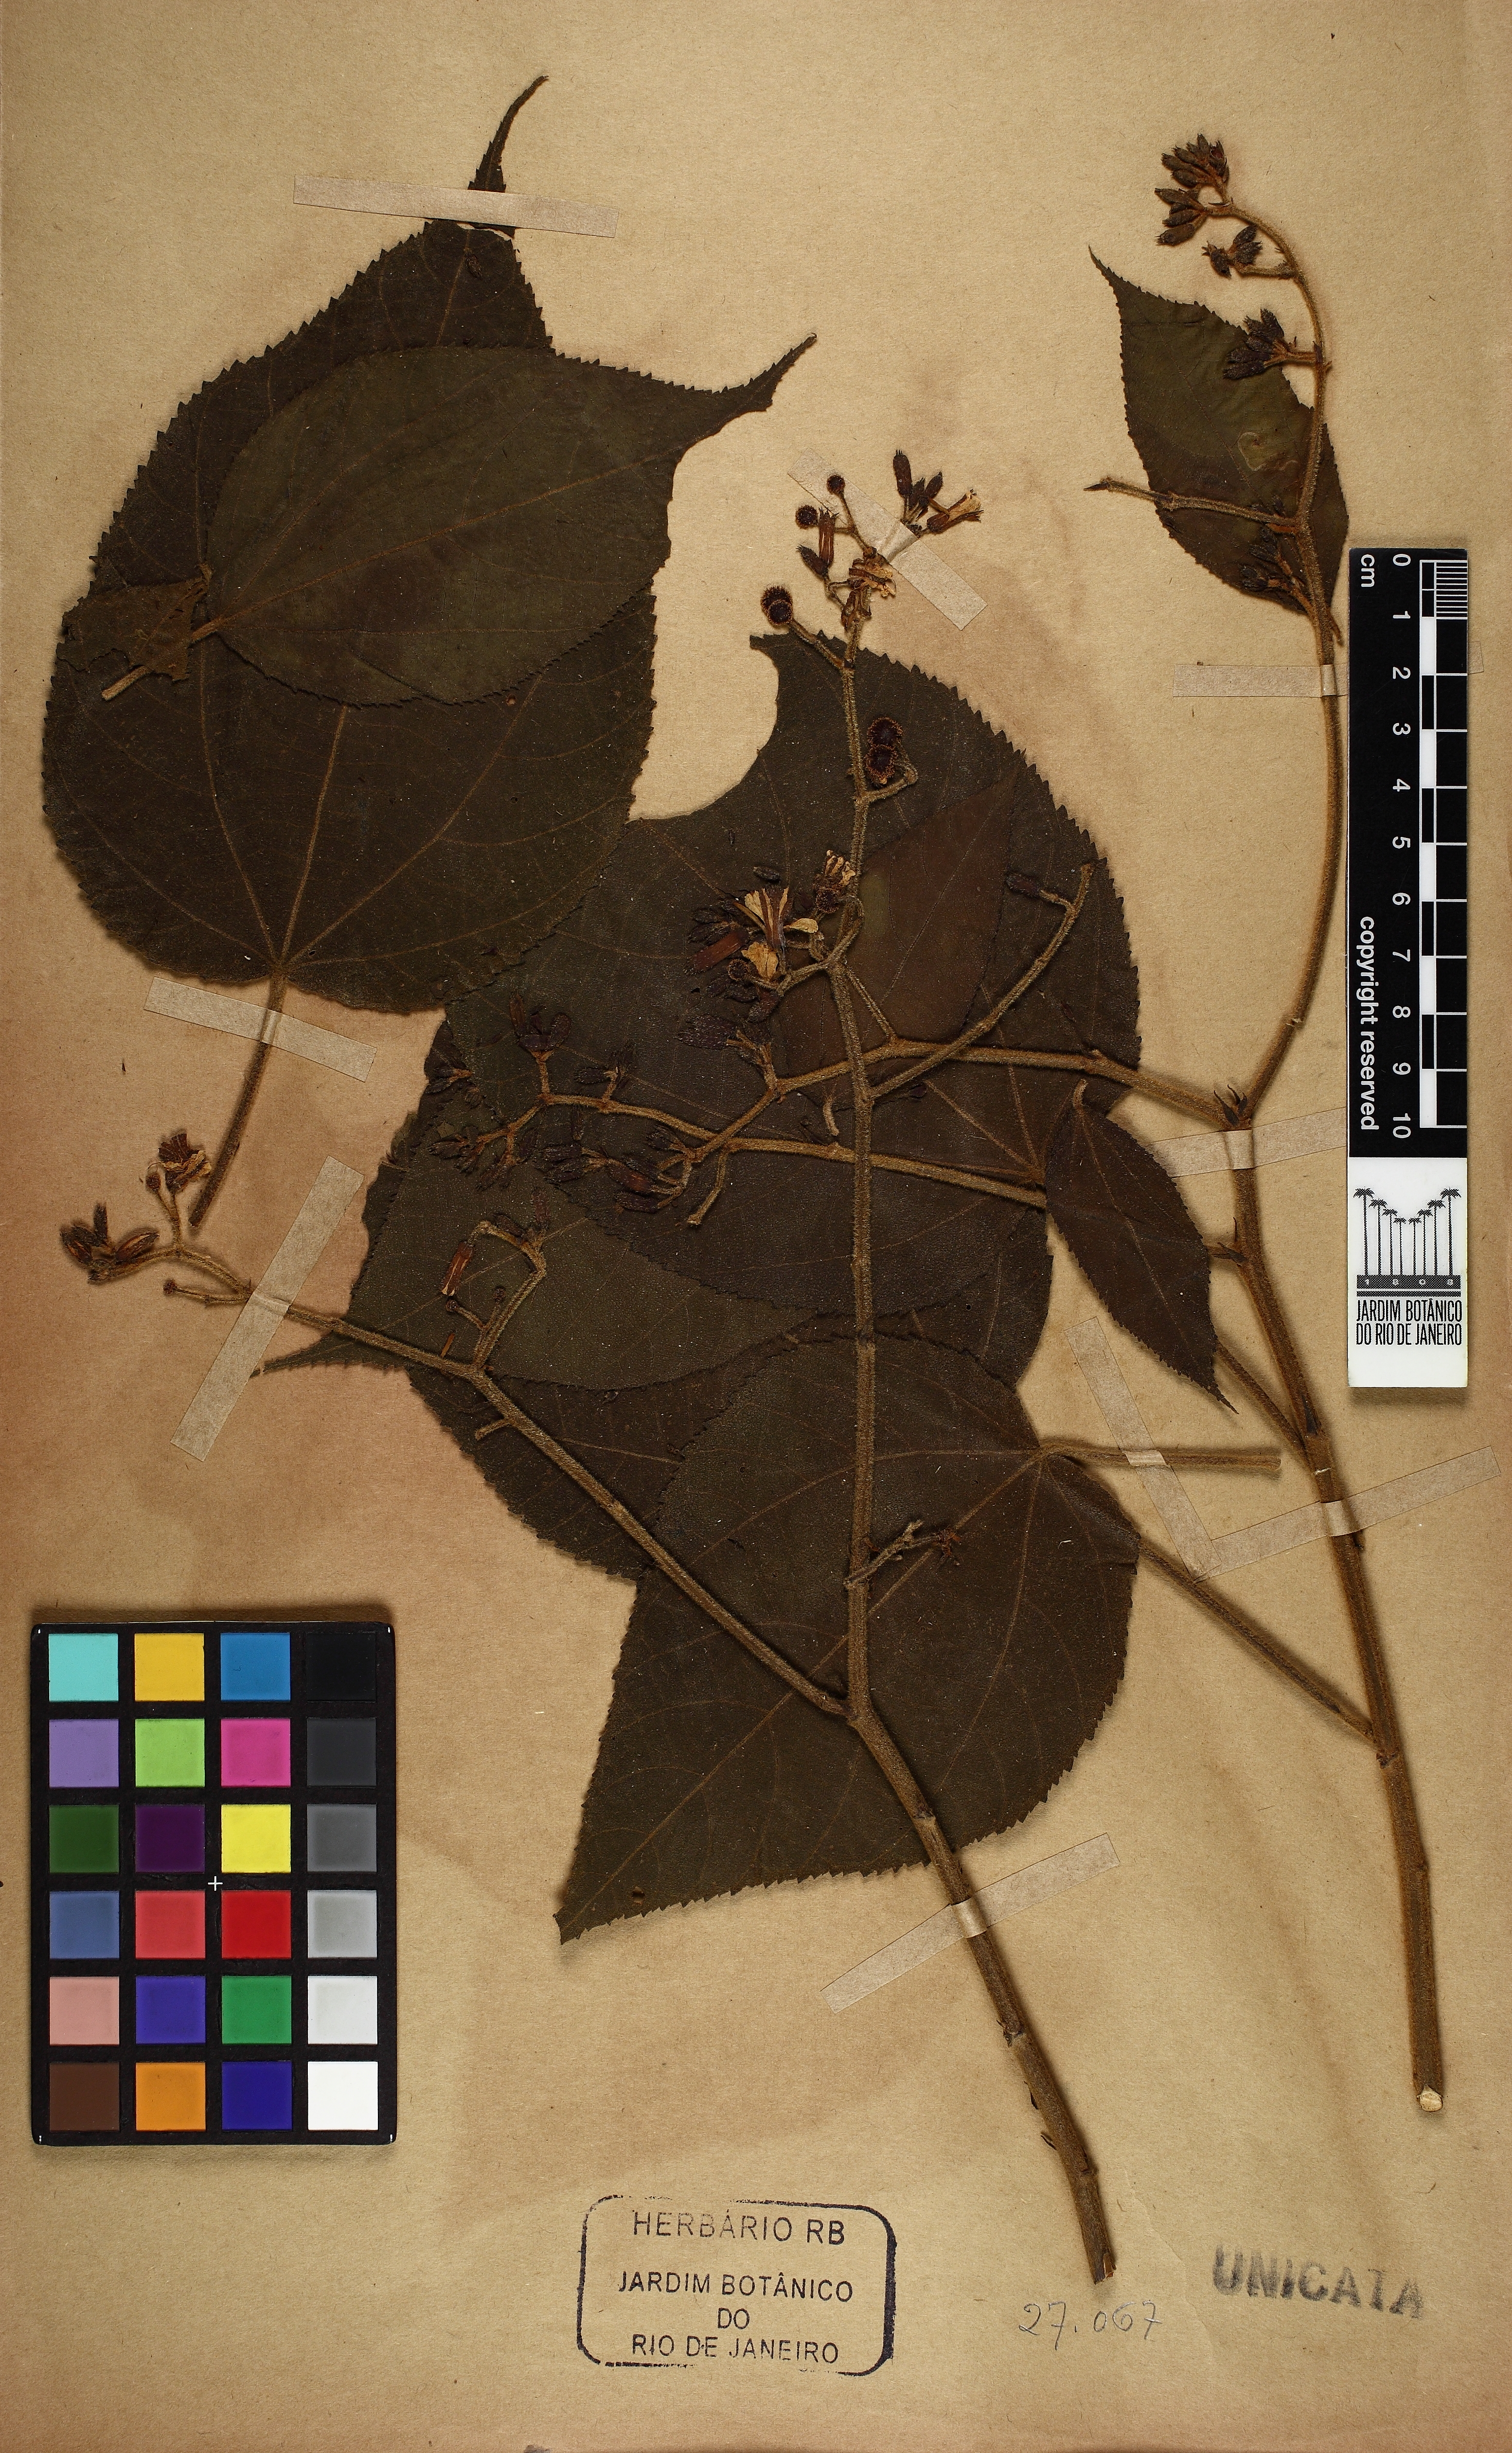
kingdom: Plantae
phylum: Tracheophyta
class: Magnoliopsida
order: Malvales
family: Malvaceae
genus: Triumfetta
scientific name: Triumfetta grandiflora
